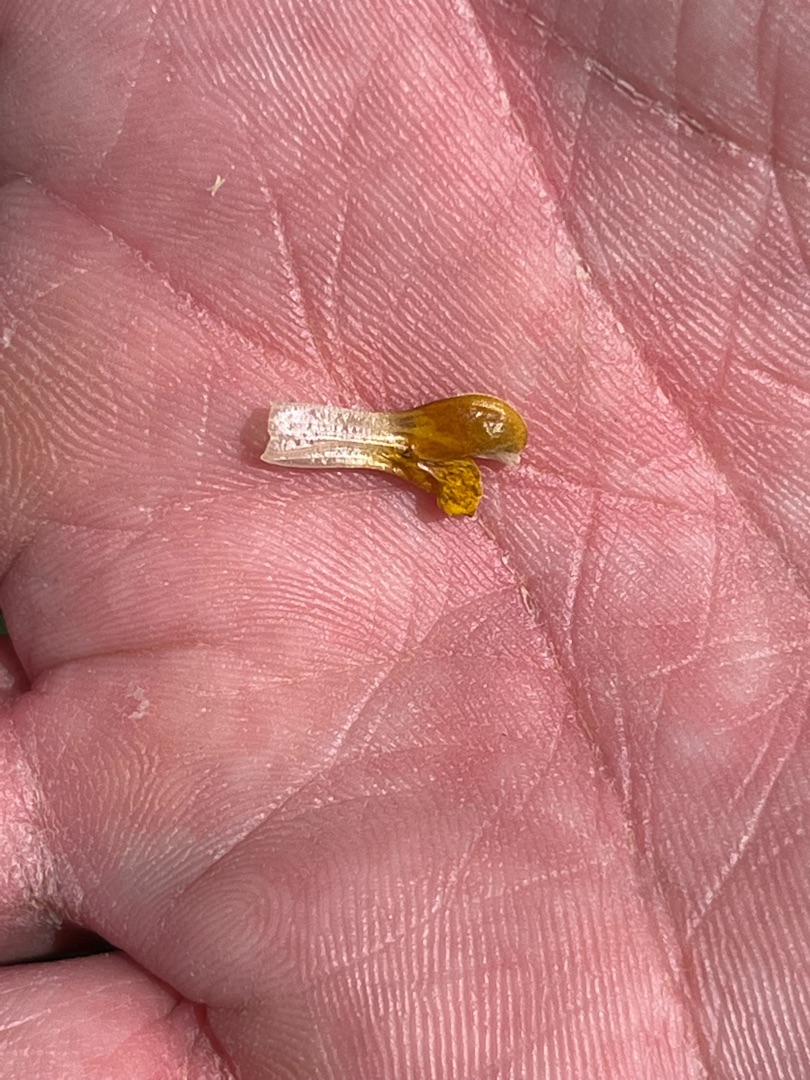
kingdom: Plantae
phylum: Tracheophyta
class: Magnoliopsida
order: Lamiales
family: Orobanchaceae
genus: Rhinanthus
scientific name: Rhinanthus minor
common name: Liden skjaller
